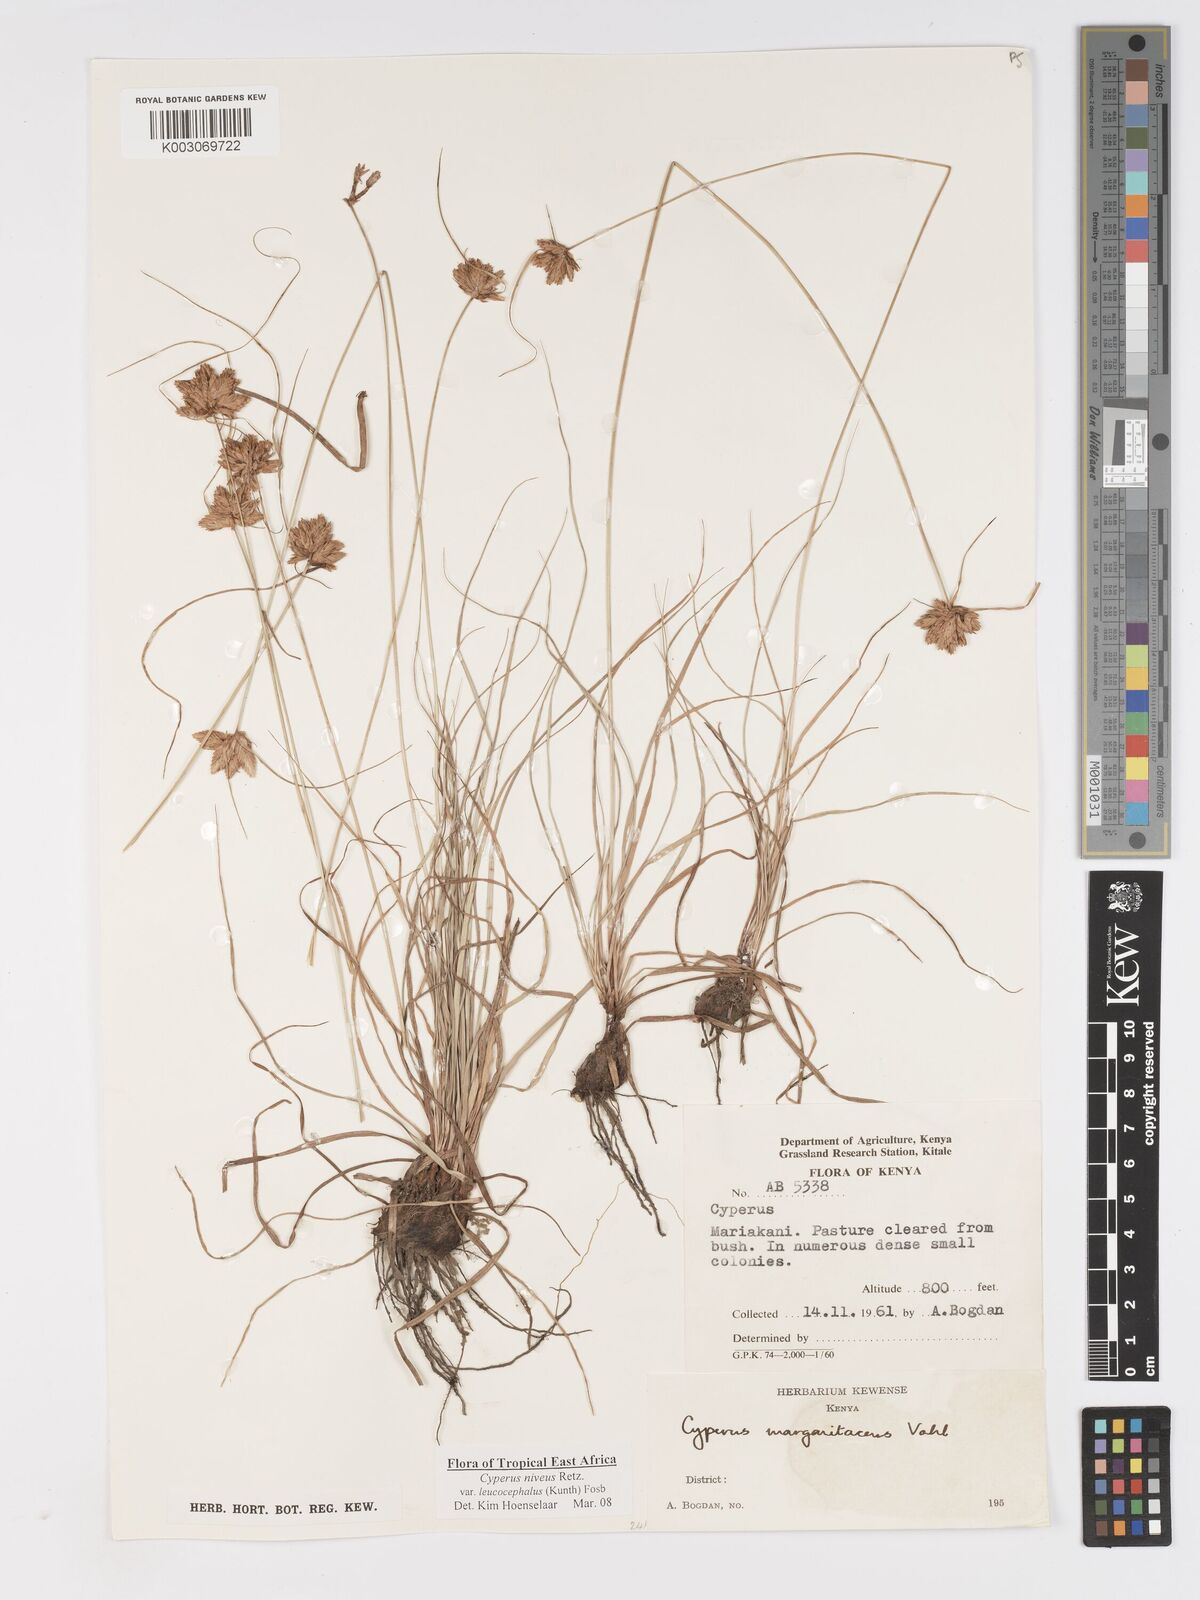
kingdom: Plantae
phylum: Tracheophyta
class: Liliopsida
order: Poales
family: Cyperaceae
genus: Cyperus
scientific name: Cyperus niveus
